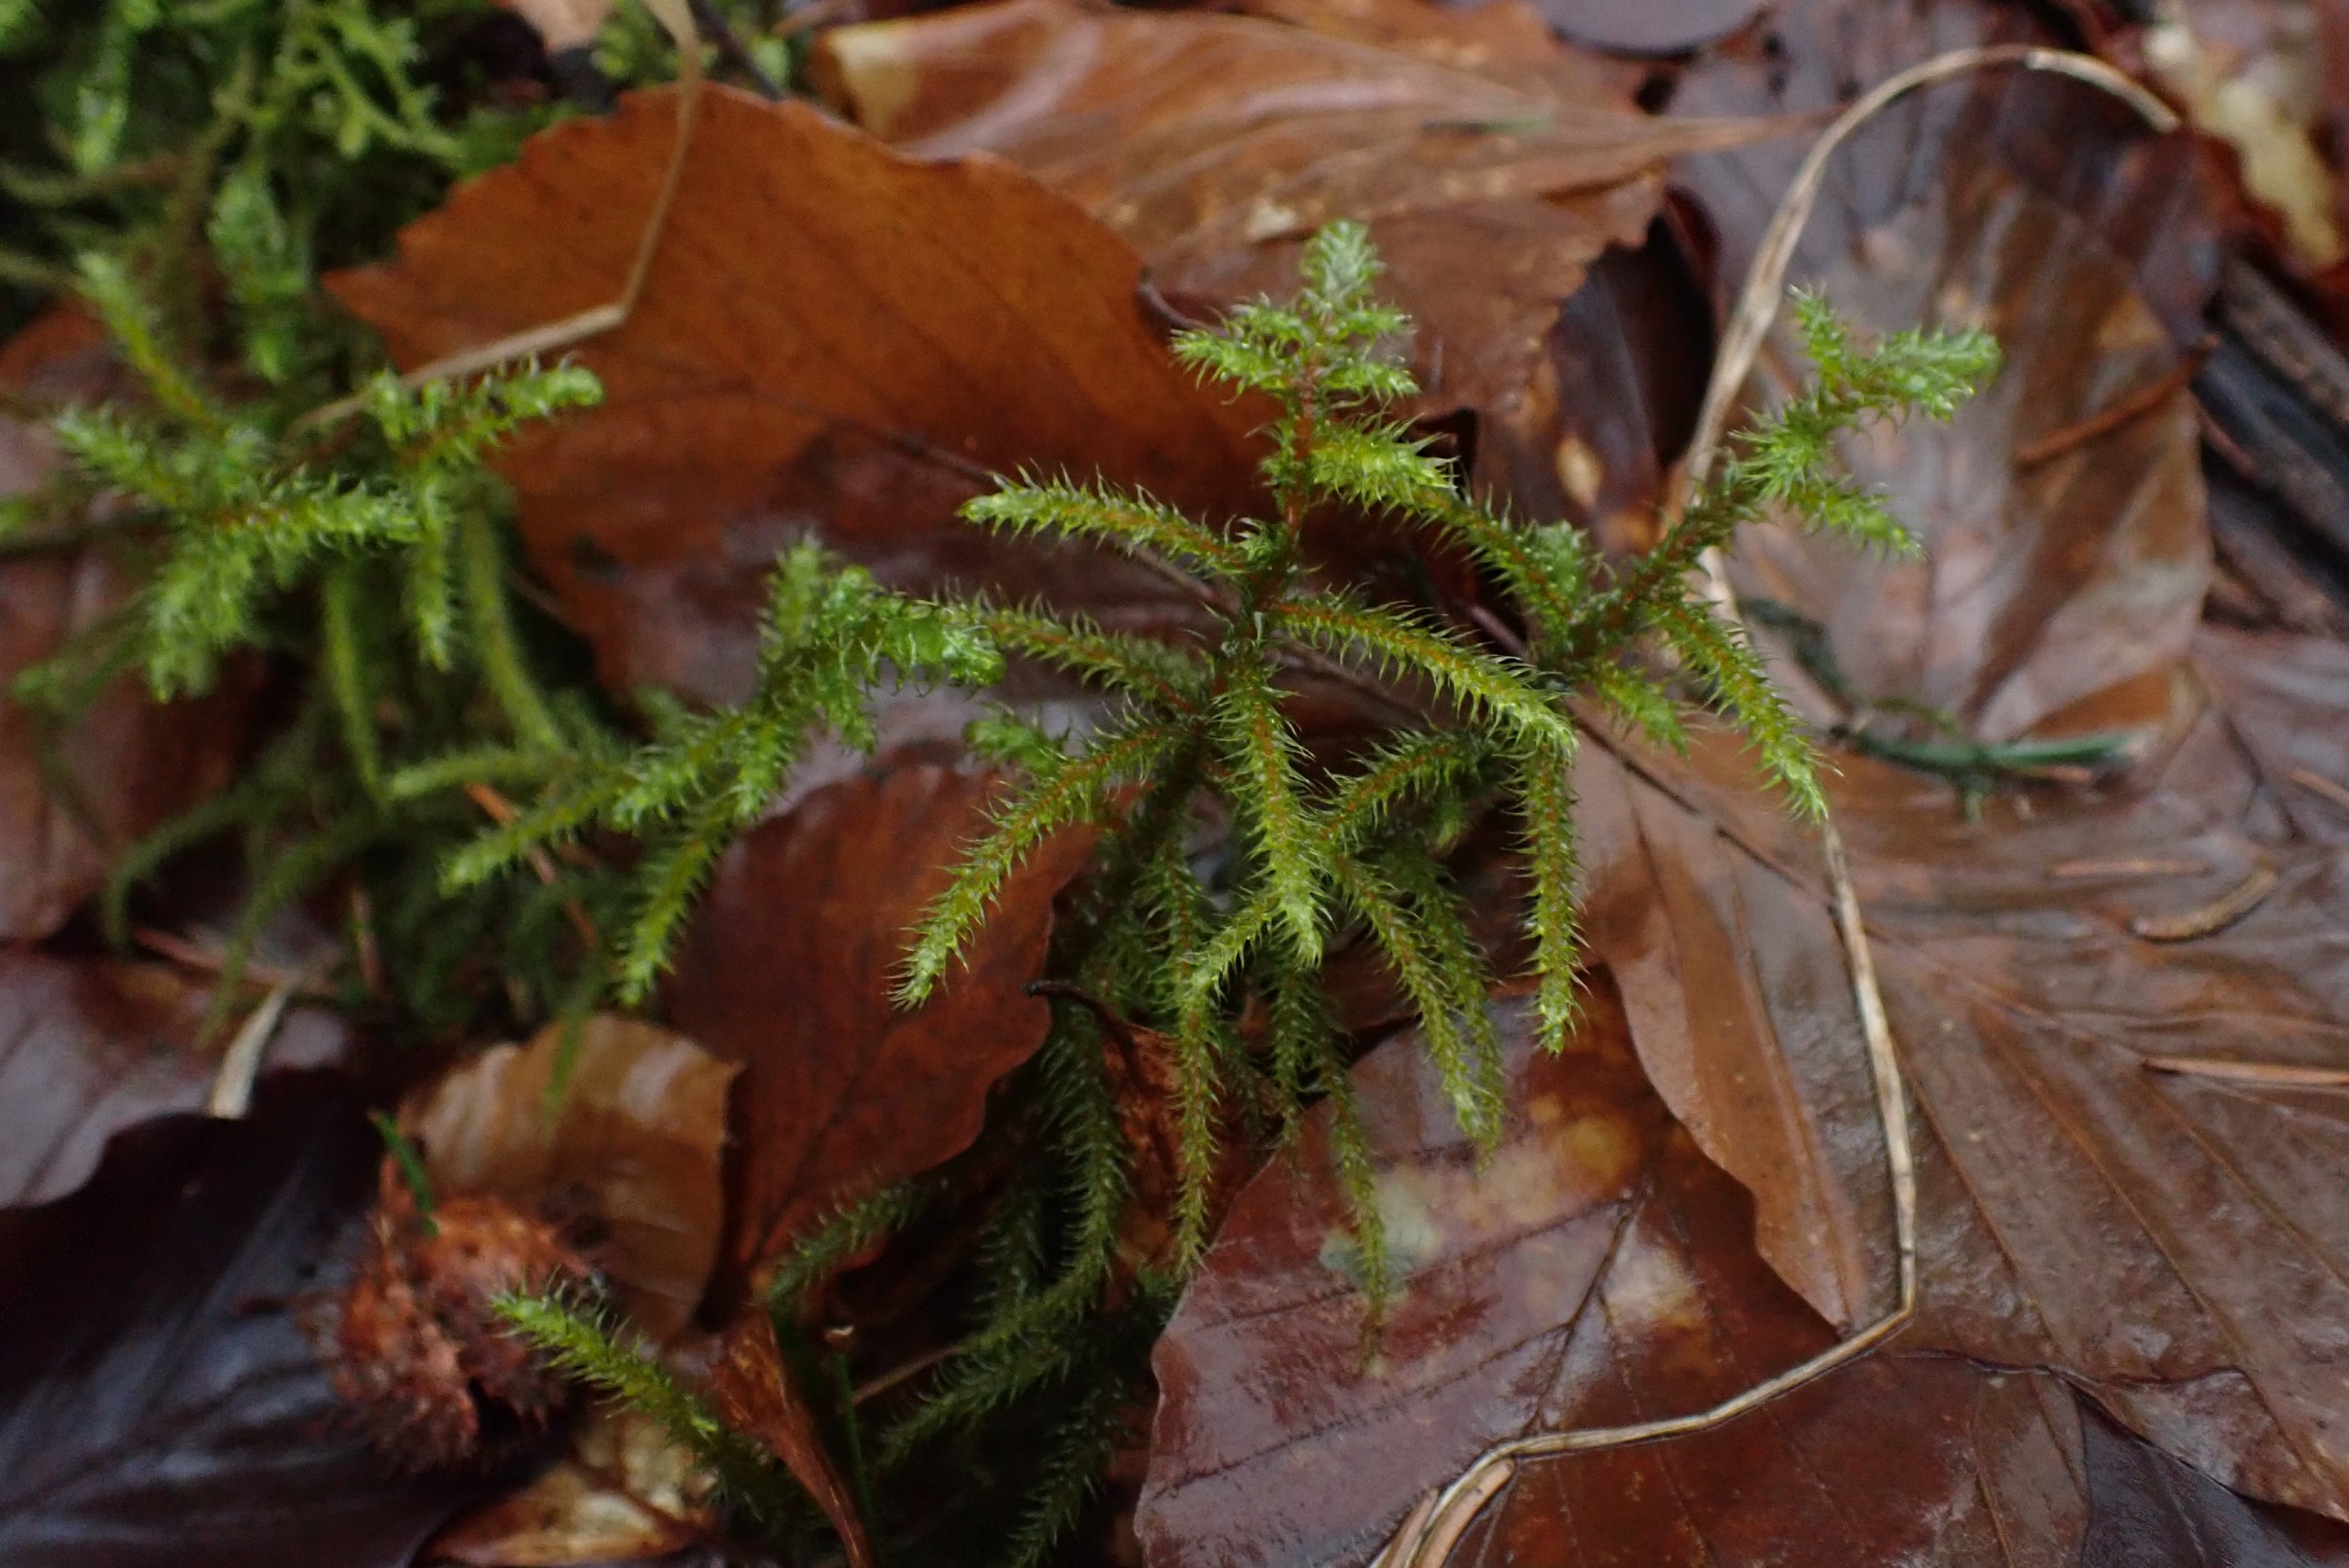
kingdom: Plantae
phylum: Bryophyta
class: Bryopsida
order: Hypnales
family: Hylocomiaceae
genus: Rhytidiadelphus
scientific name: Rhytidiadelphus loreus
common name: Ulvefod-kransemos
